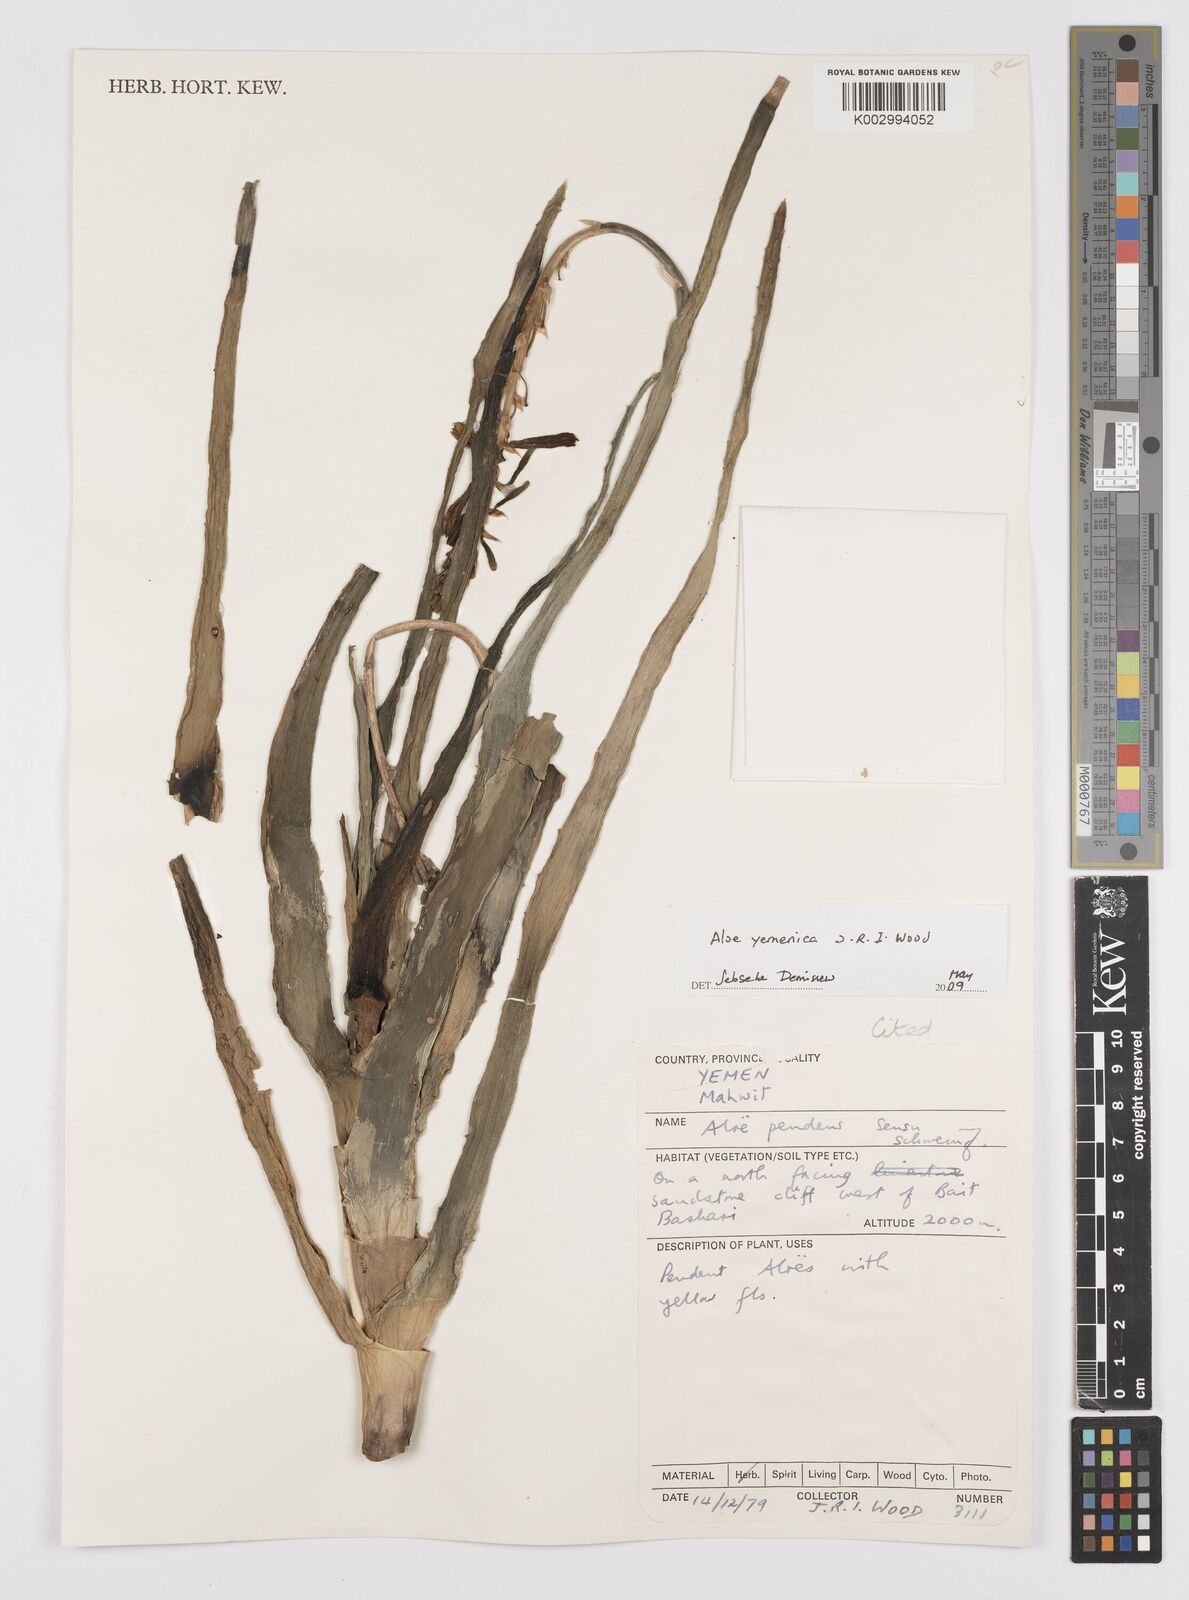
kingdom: Plantae
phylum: Tracheophyta
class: Liliopsida
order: Asparagales
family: Asphodelaceae
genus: Aloe
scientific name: Aloe yemenica
